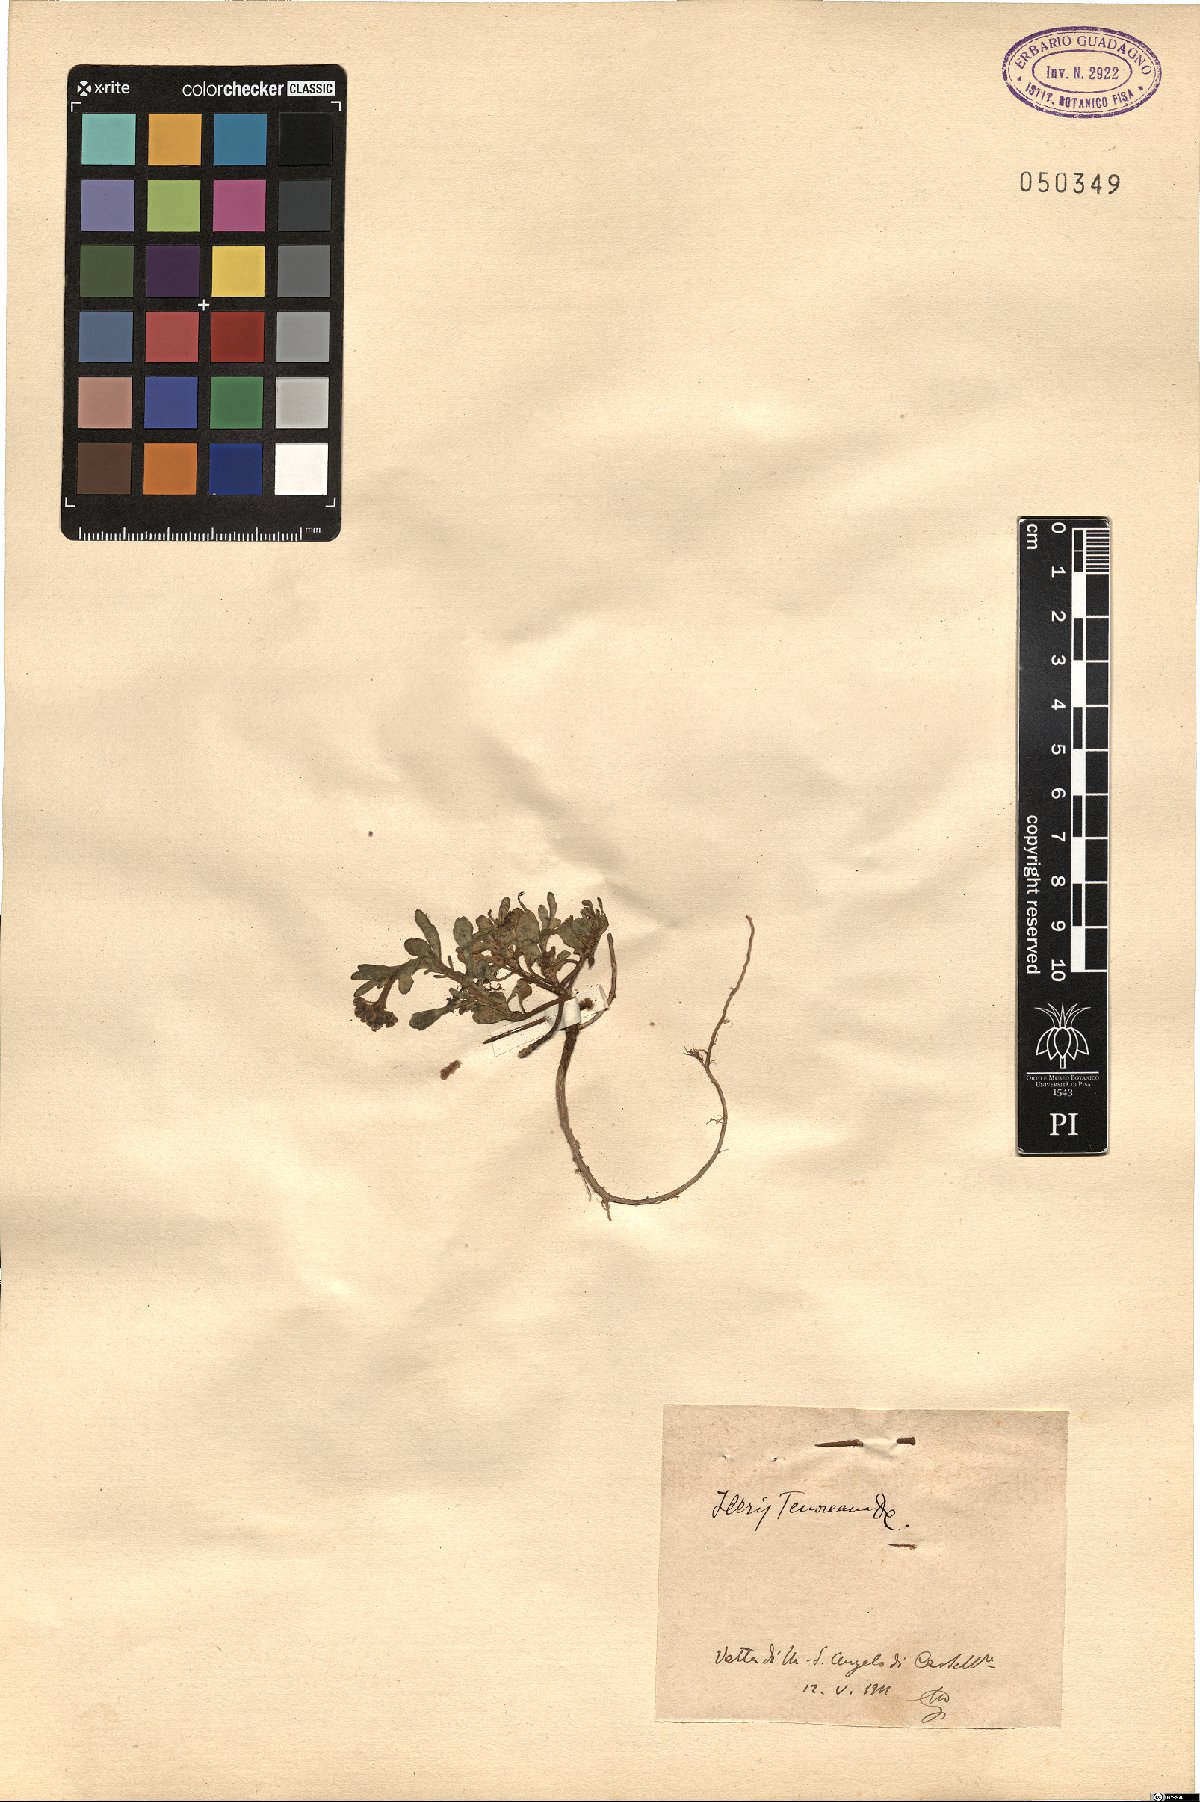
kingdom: Plantae
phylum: Tracheophyta
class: Magnoliopsida
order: Brassicales
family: Brassicaceae
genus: Iberis
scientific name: Iberis carnosa
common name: Pruit's candytuft
